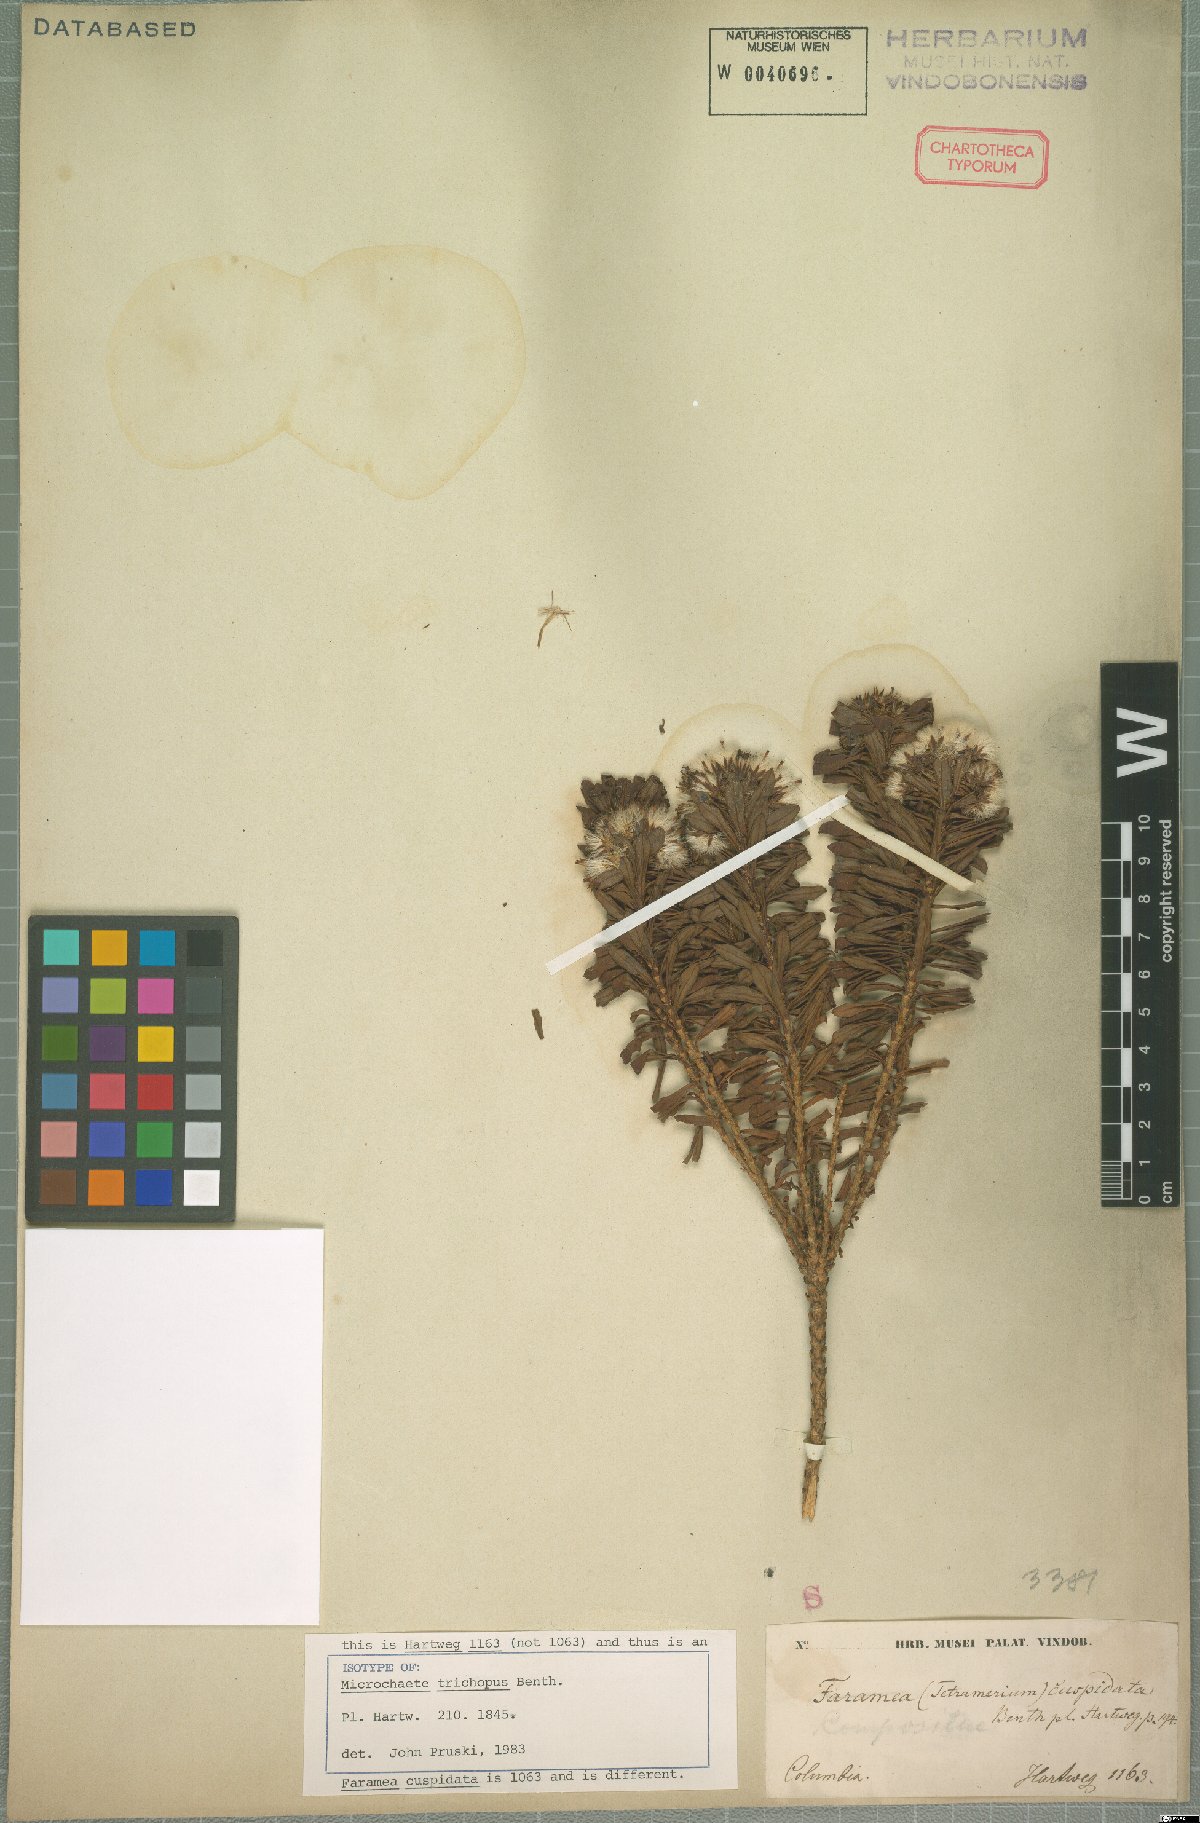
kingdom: Plantae
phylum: Tracheophyta
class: Magnoliopsida
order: Asterales
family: Asteraceae
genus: Monticalia
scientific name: Monticalia trichopus
